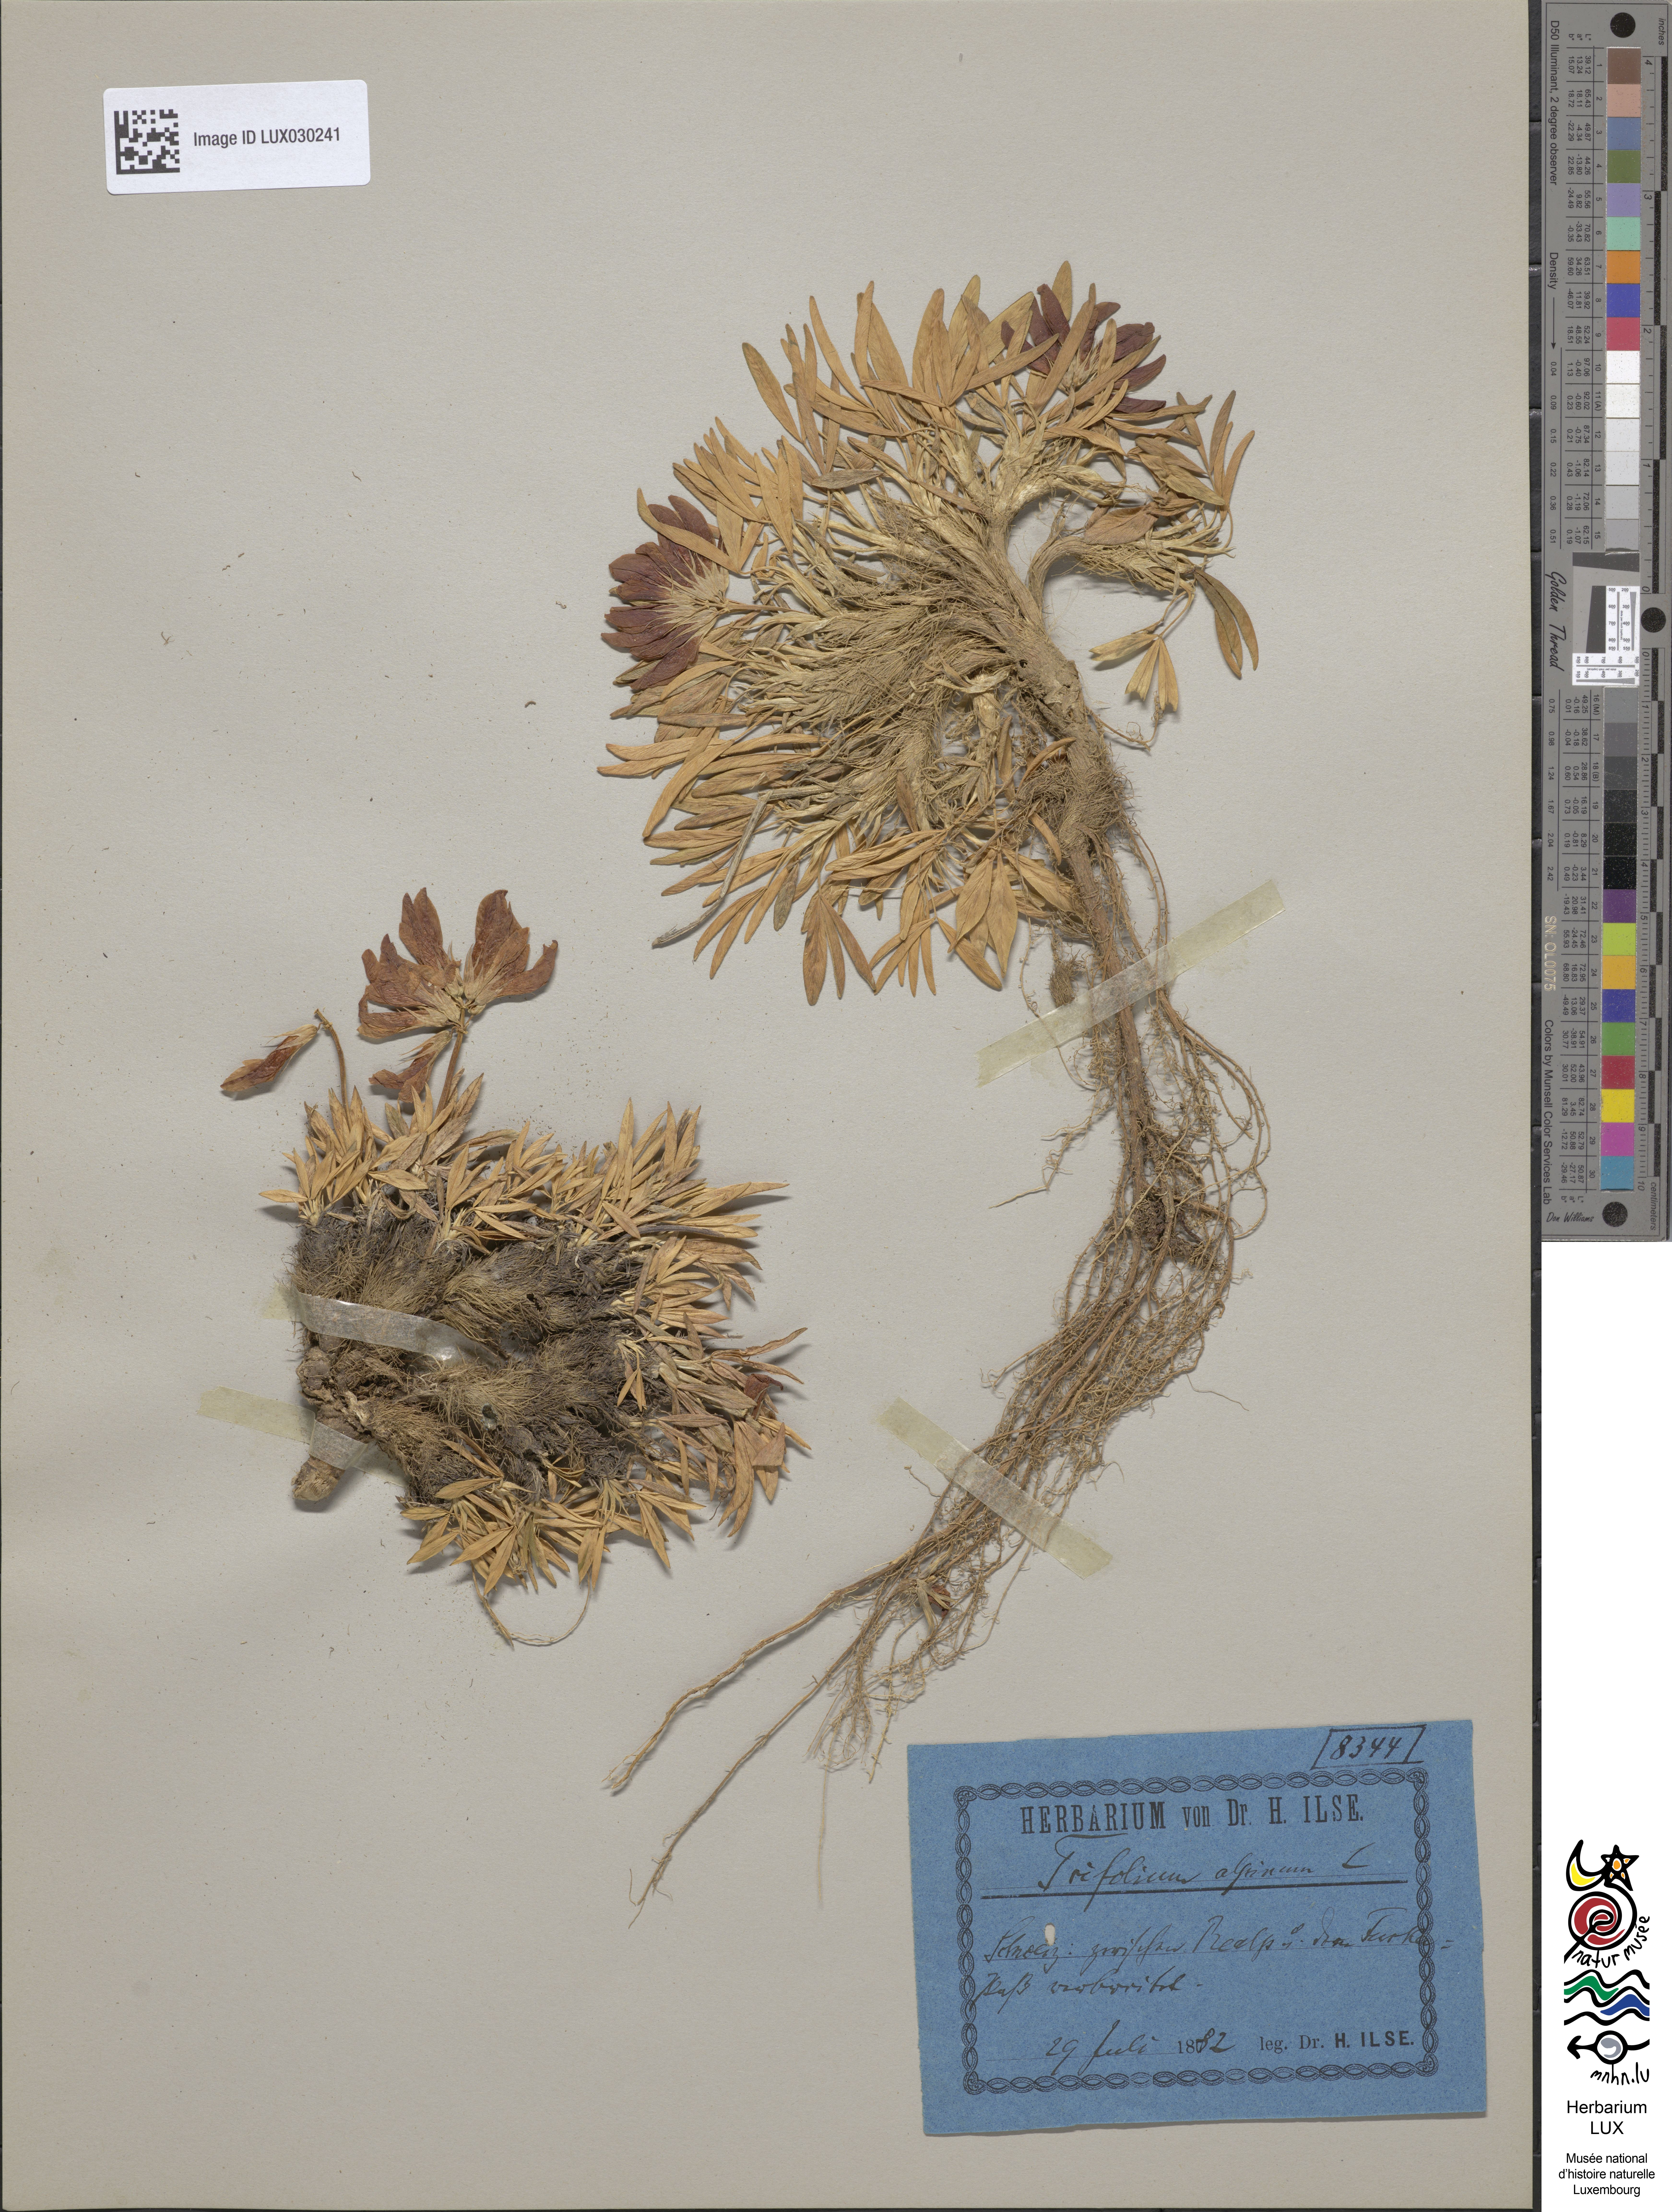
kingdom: Plantae
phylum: Tracheophyta
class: Magnoliopsida
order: Fabales
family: Fabaceae
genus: Trifolium
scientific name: Trifolium alpinum
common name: Alpine clover
